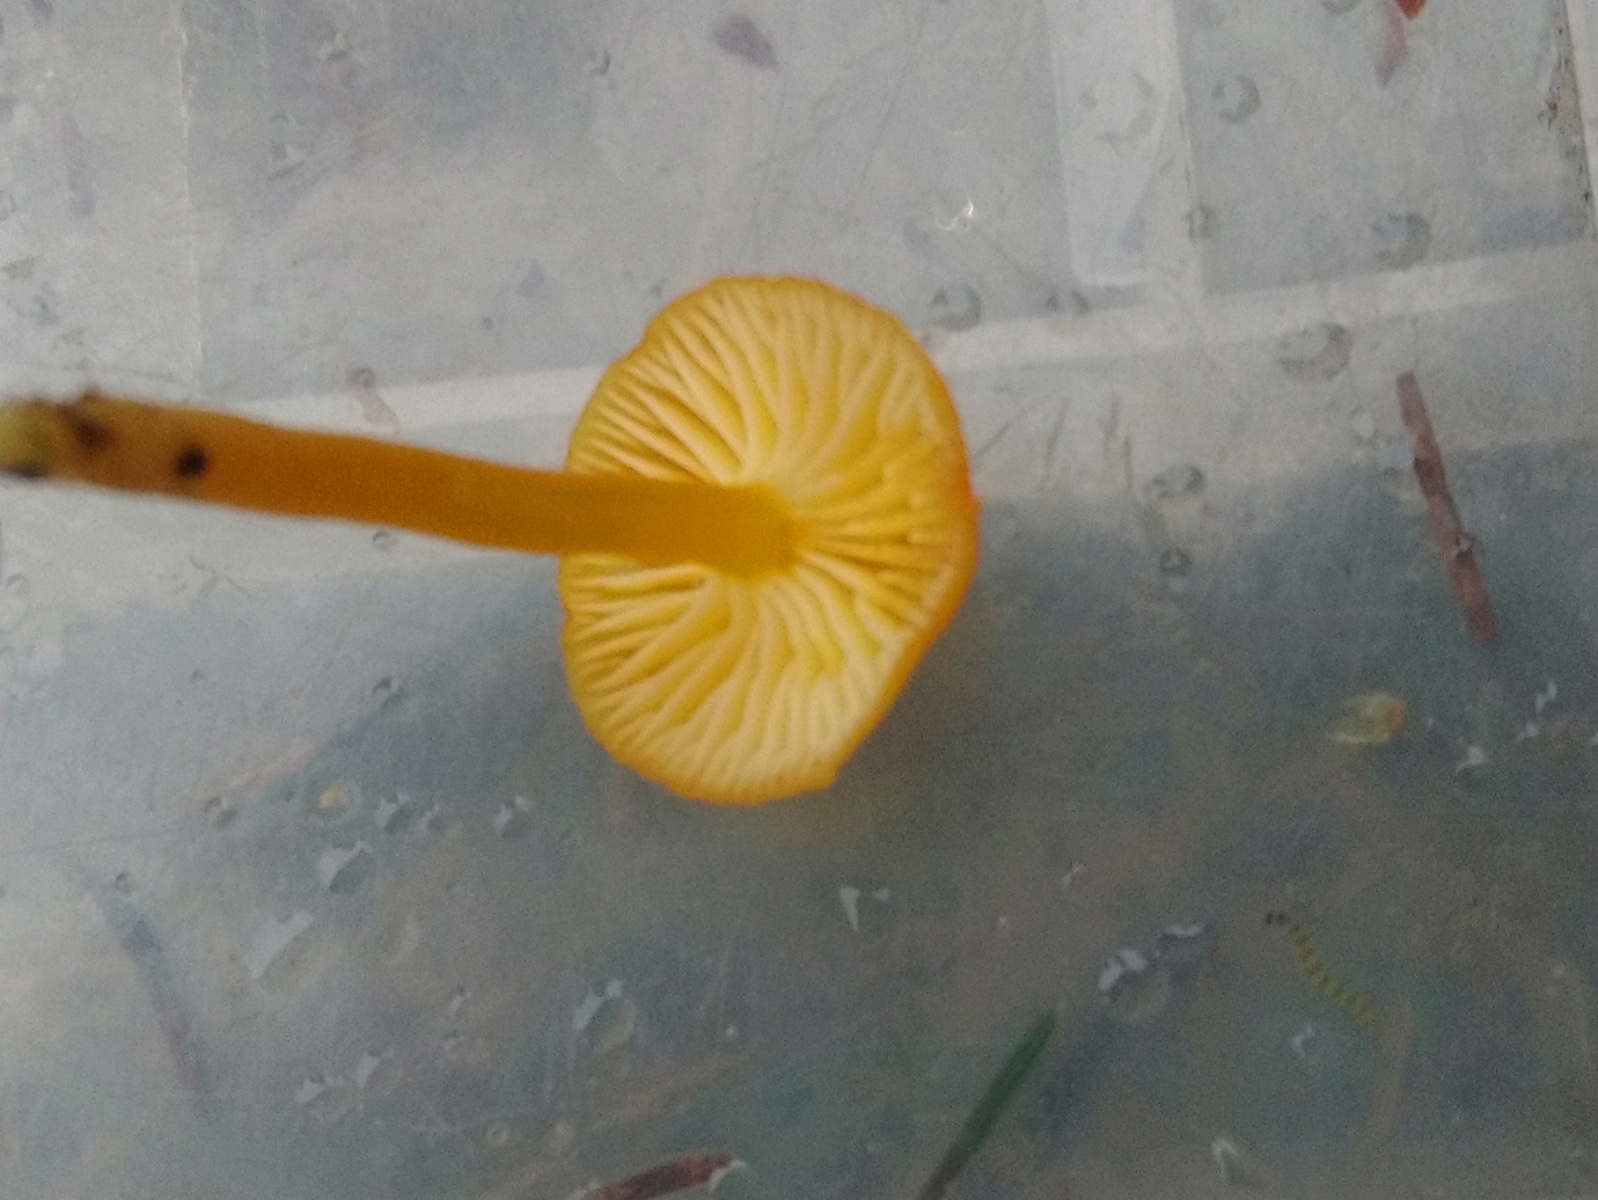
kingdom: Fungi
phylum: Basidiomycota
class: Agaricomycetes
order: Agaricales
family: Hygrophoraceae
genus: Hygrocybe
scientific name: Hygrocybe ceracea
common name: voksgul vokshat
